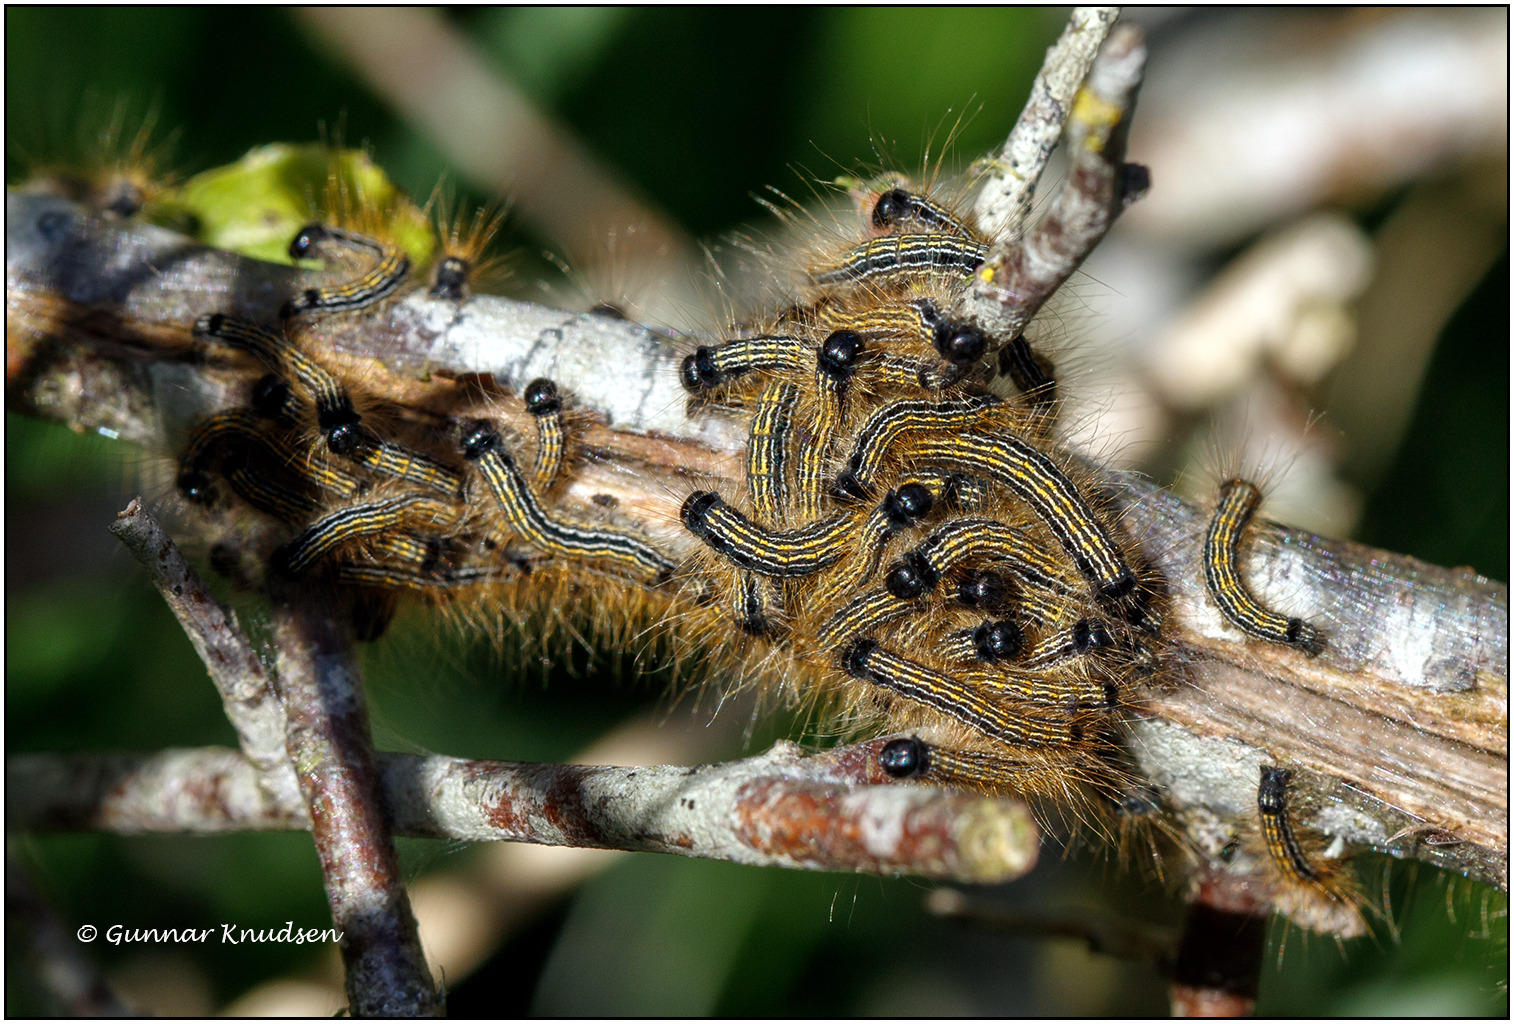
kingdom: Animalia
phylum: Arthropoda
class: Insecta
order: Lepidoptera
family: Lasiocampidae
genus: Malacosoma
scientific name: Malacosoma neustria
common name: Ringspinder
